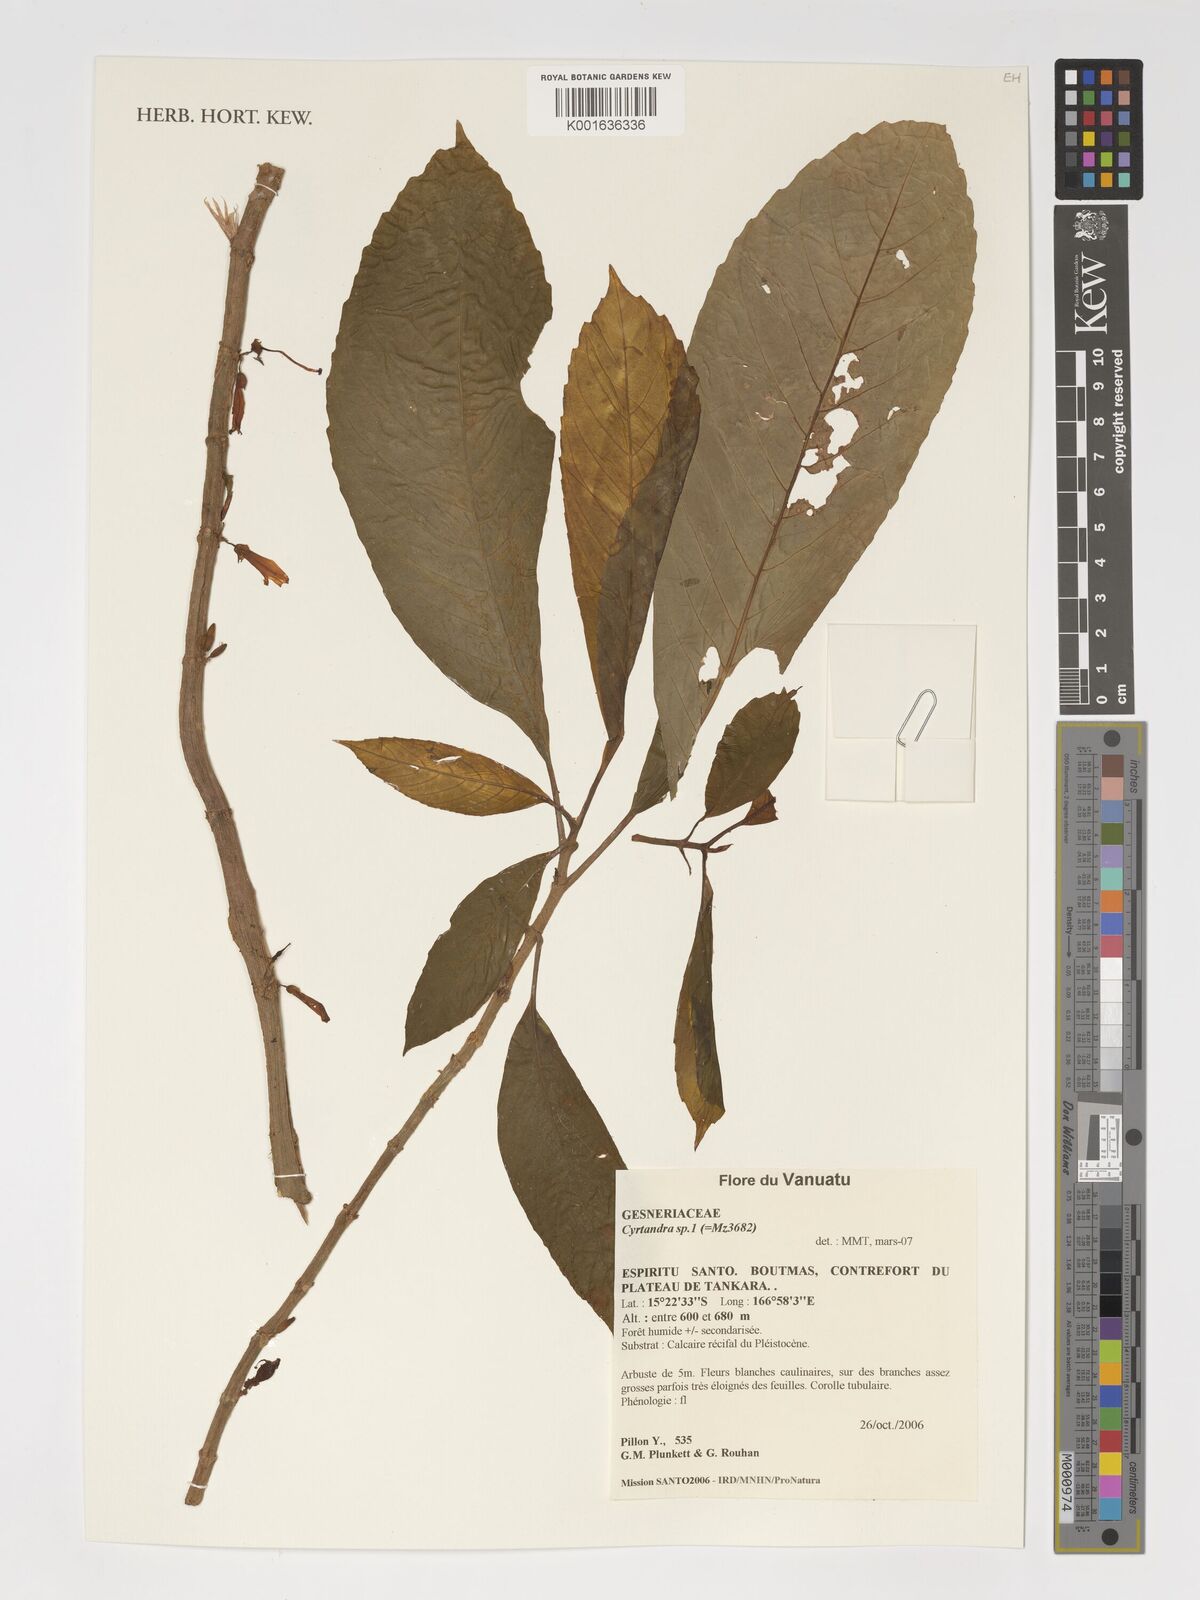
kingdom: Plantae
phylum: Tracheophyta
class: Magnoliopsida
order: Lamiales
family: Gesneriaceae
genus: Cyrtandra
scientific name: Cyrtandra
